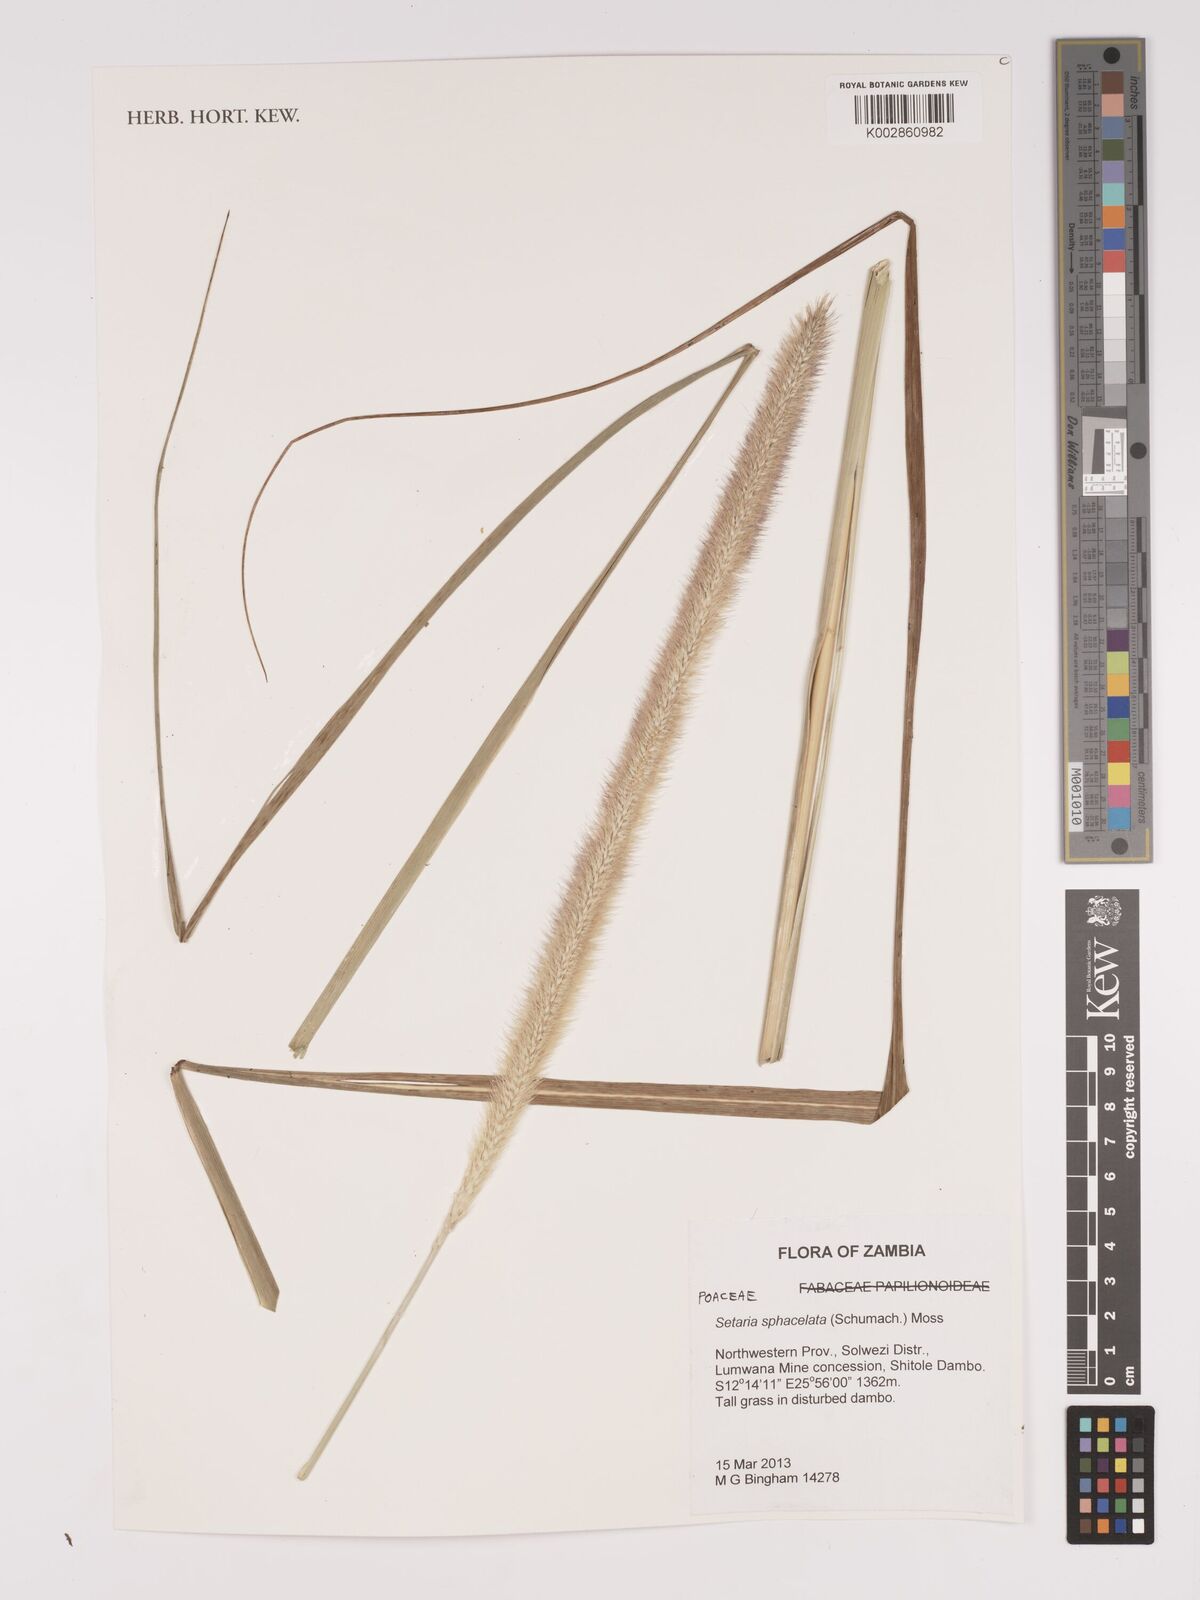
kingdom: Plantae
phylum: Tracheophyta
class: Liliopsida
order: Poales
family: Poaceae
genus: Setaria
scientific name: Setaria
